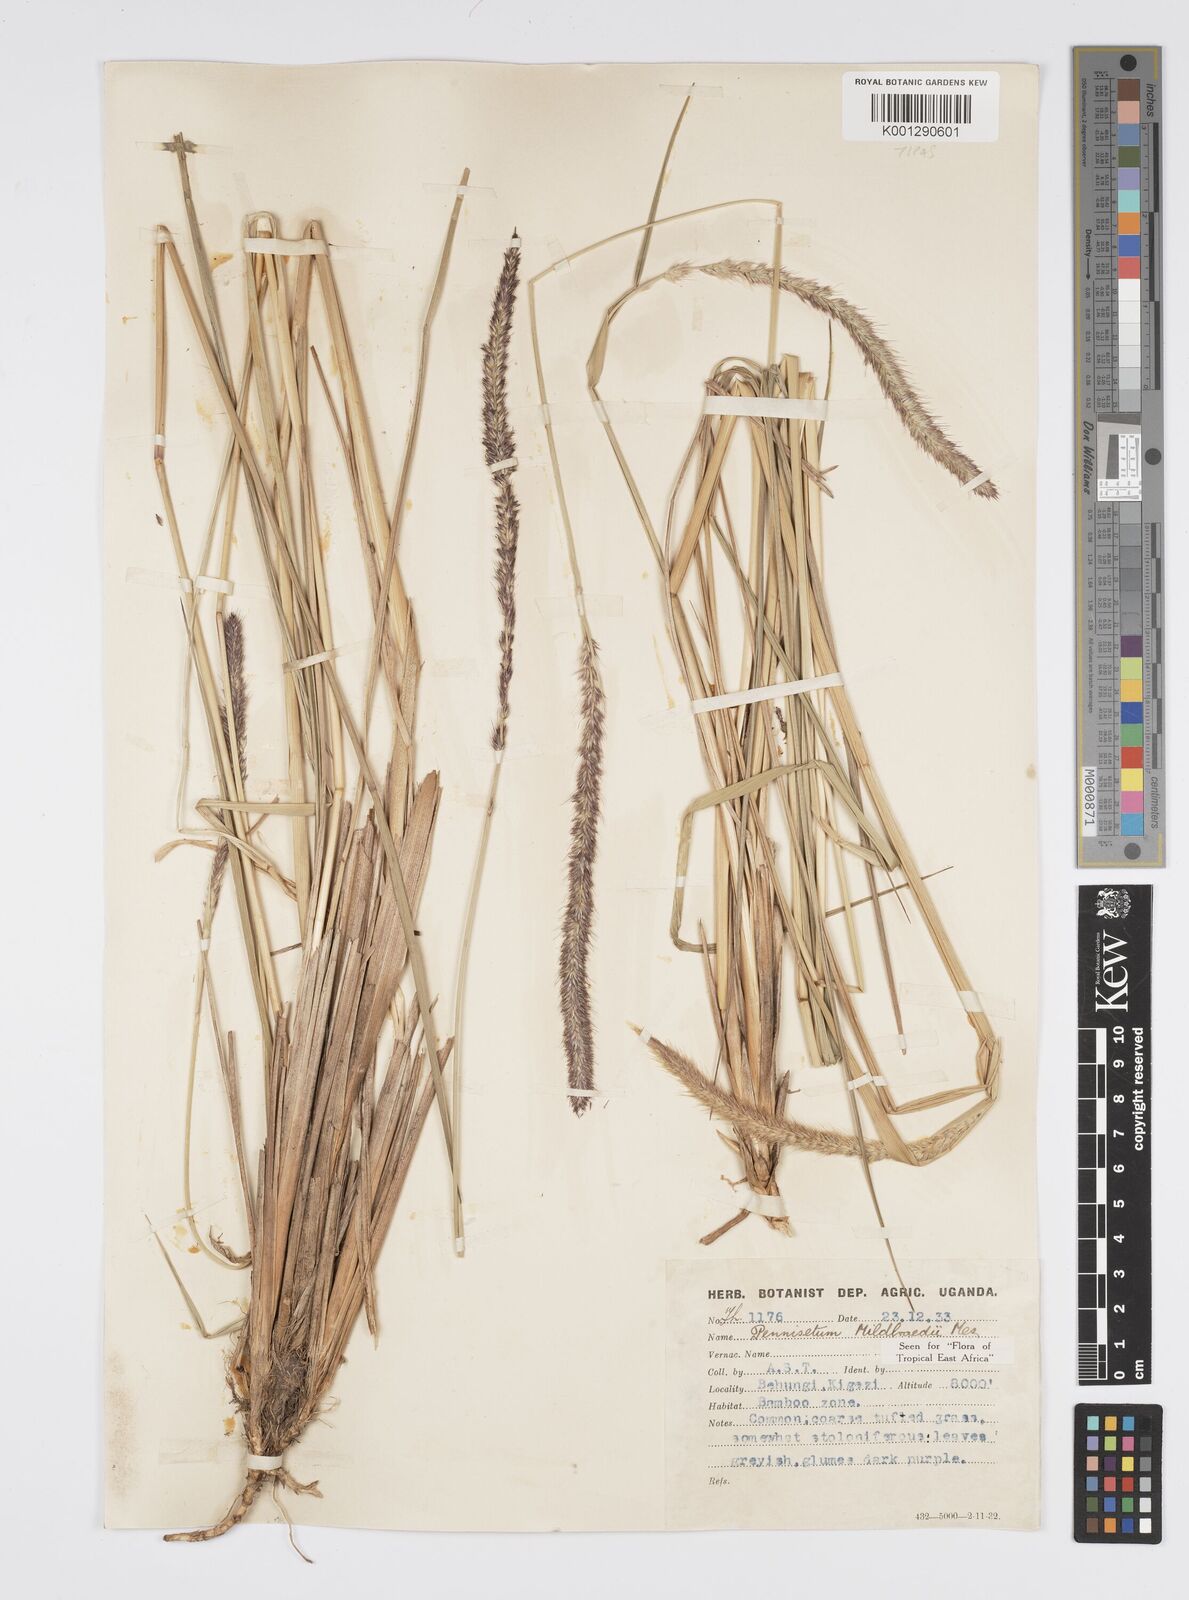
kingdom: Plantae
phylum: Tracheophyta
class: Liliopsida
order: Poales
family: Poaceae
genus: Cenchrus
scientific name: Cenchrus caudatus
